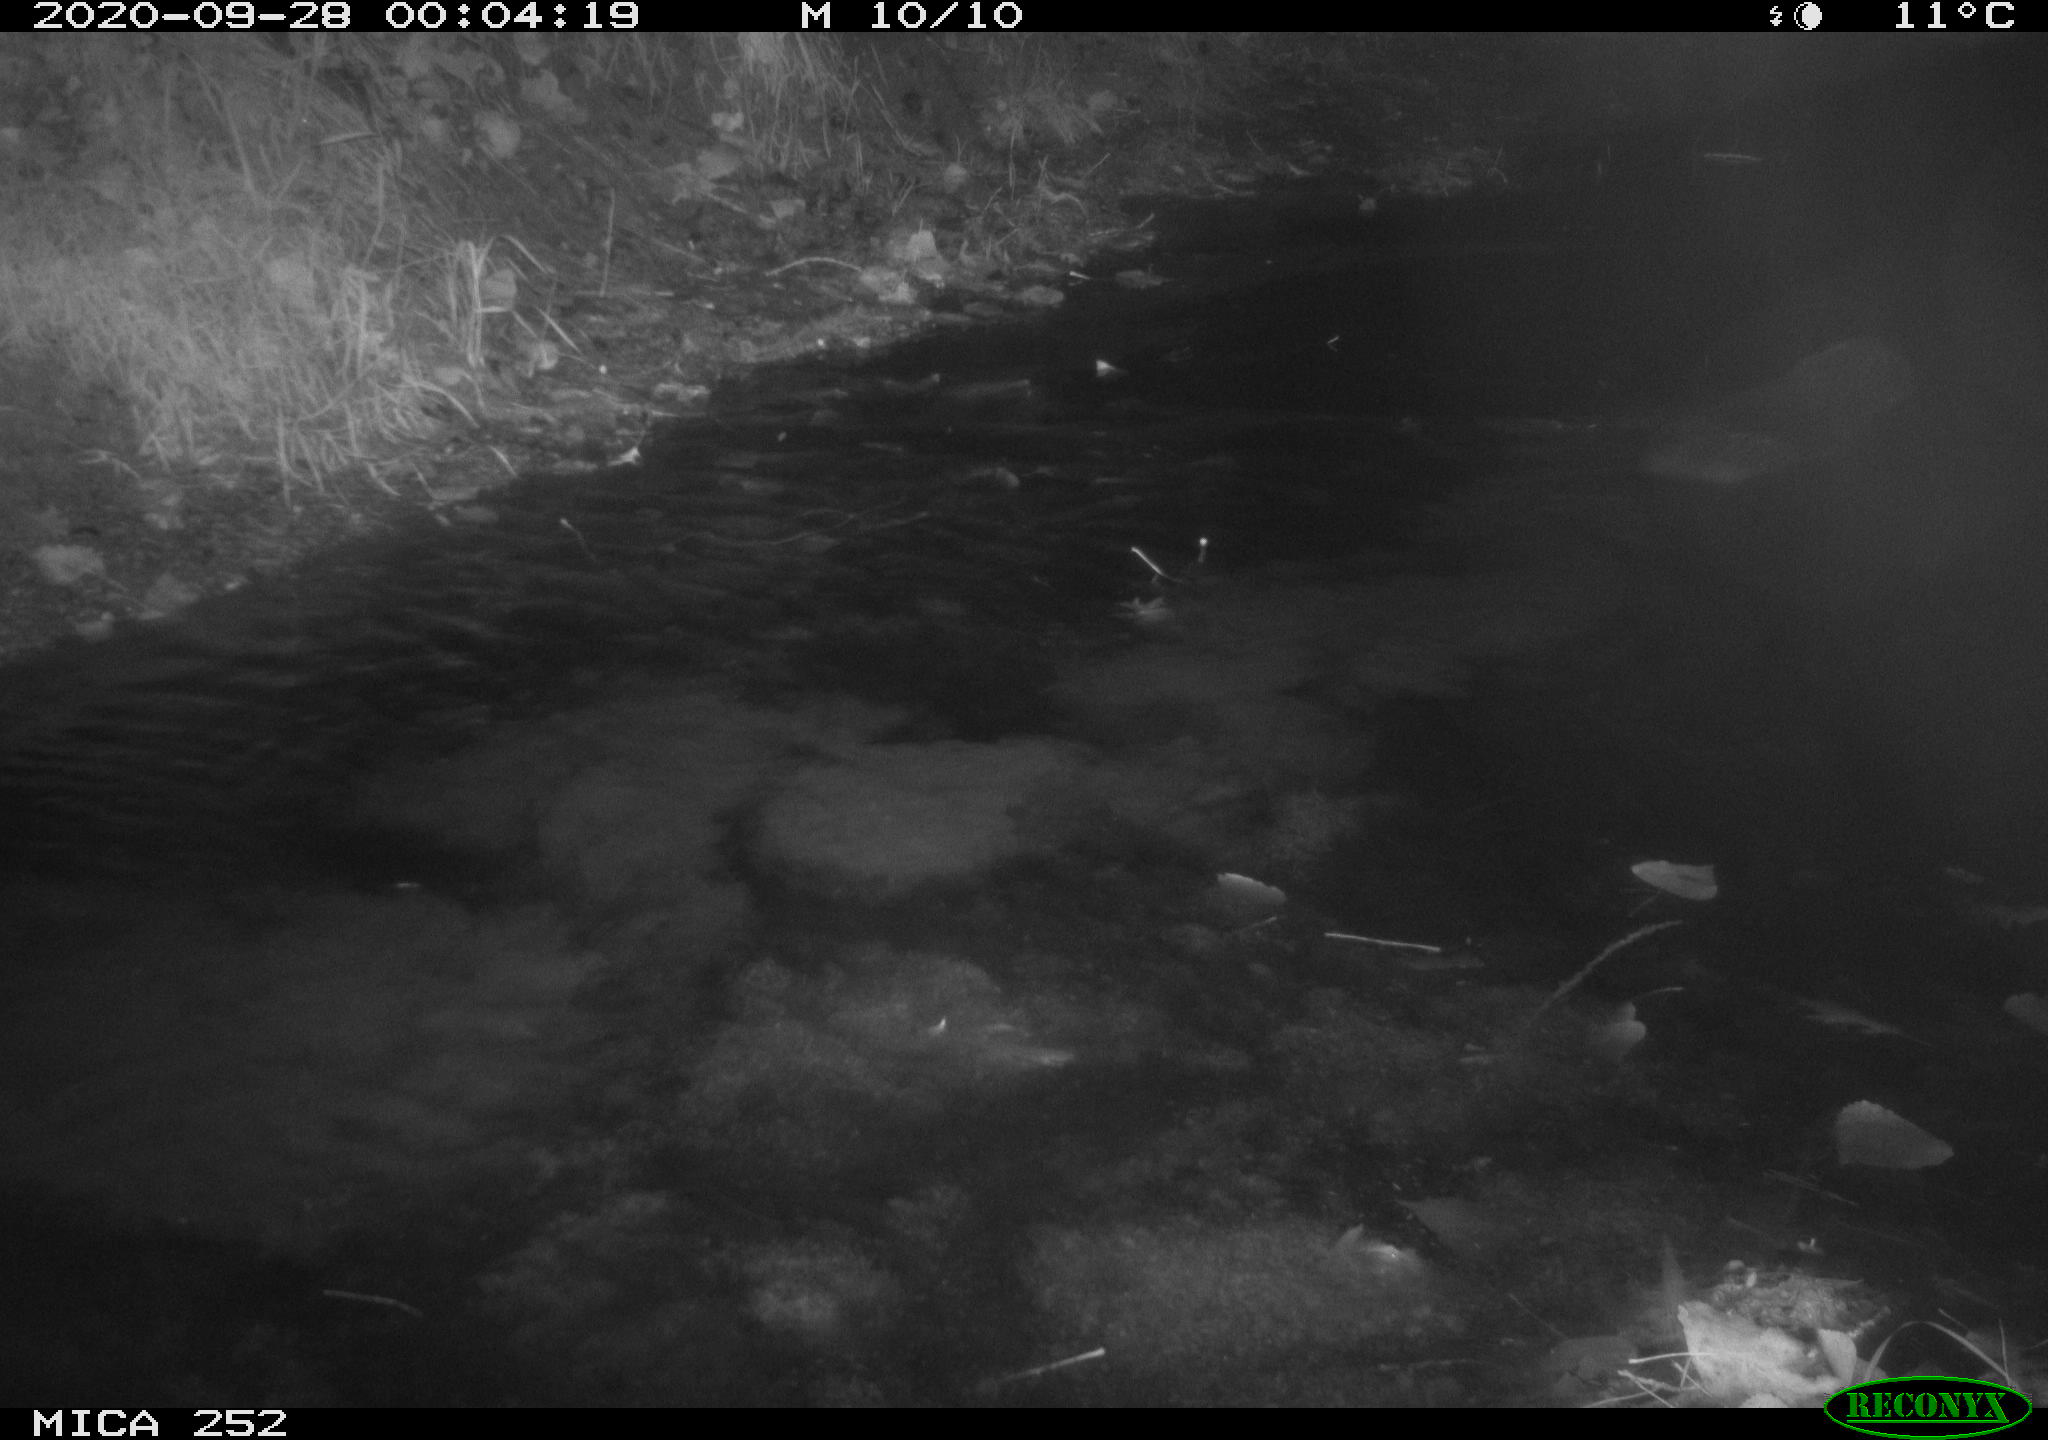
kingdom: Animalia
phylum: Chordata
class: Mammalia
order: Rodentia
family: Castoridae
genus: Castor
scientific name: Castor fiber
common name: Eurasian beaver
